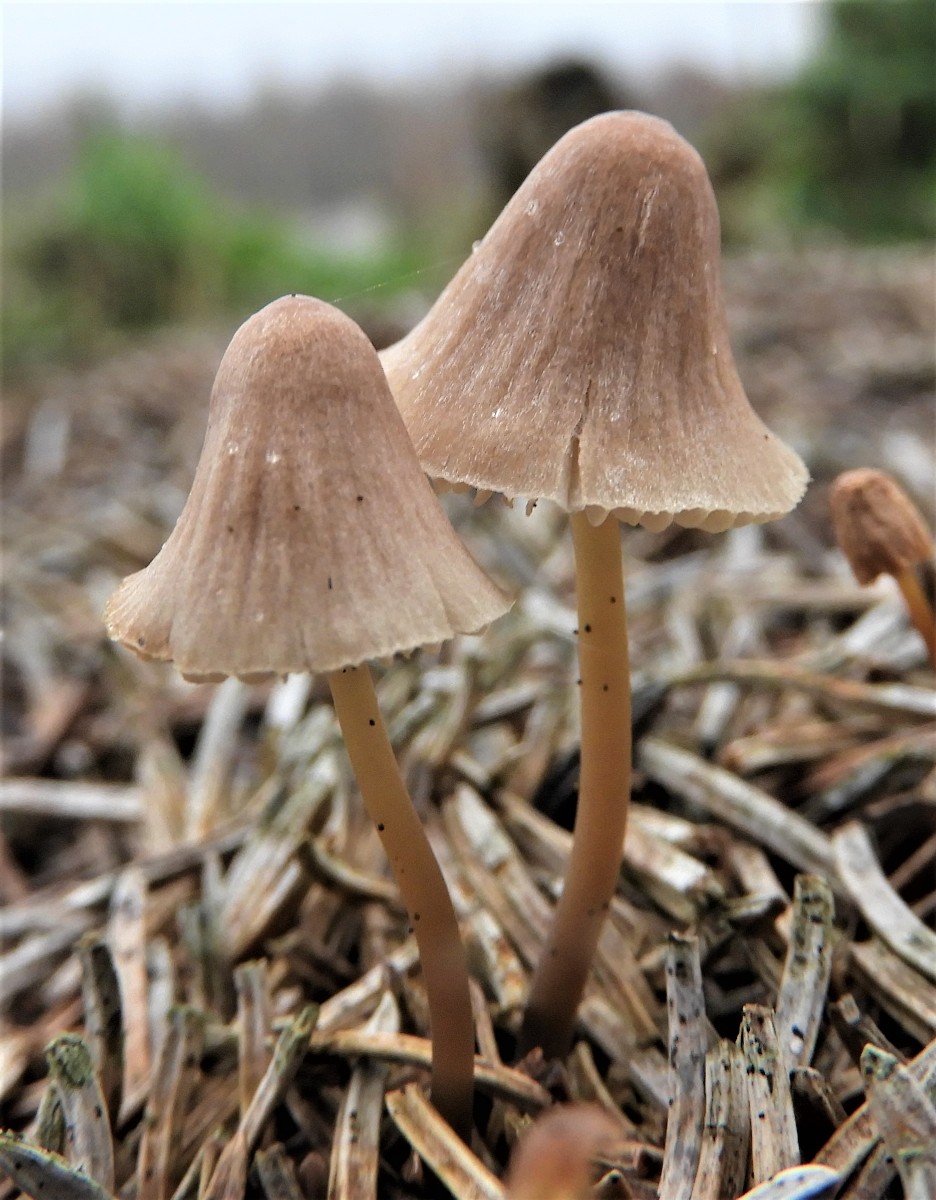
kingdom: Fungi
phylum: Basidiomycota
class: Agaricomycetes
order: Agaricales
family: Mycenaceae
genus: Mycena
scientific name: Mycena
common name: huesvamp
